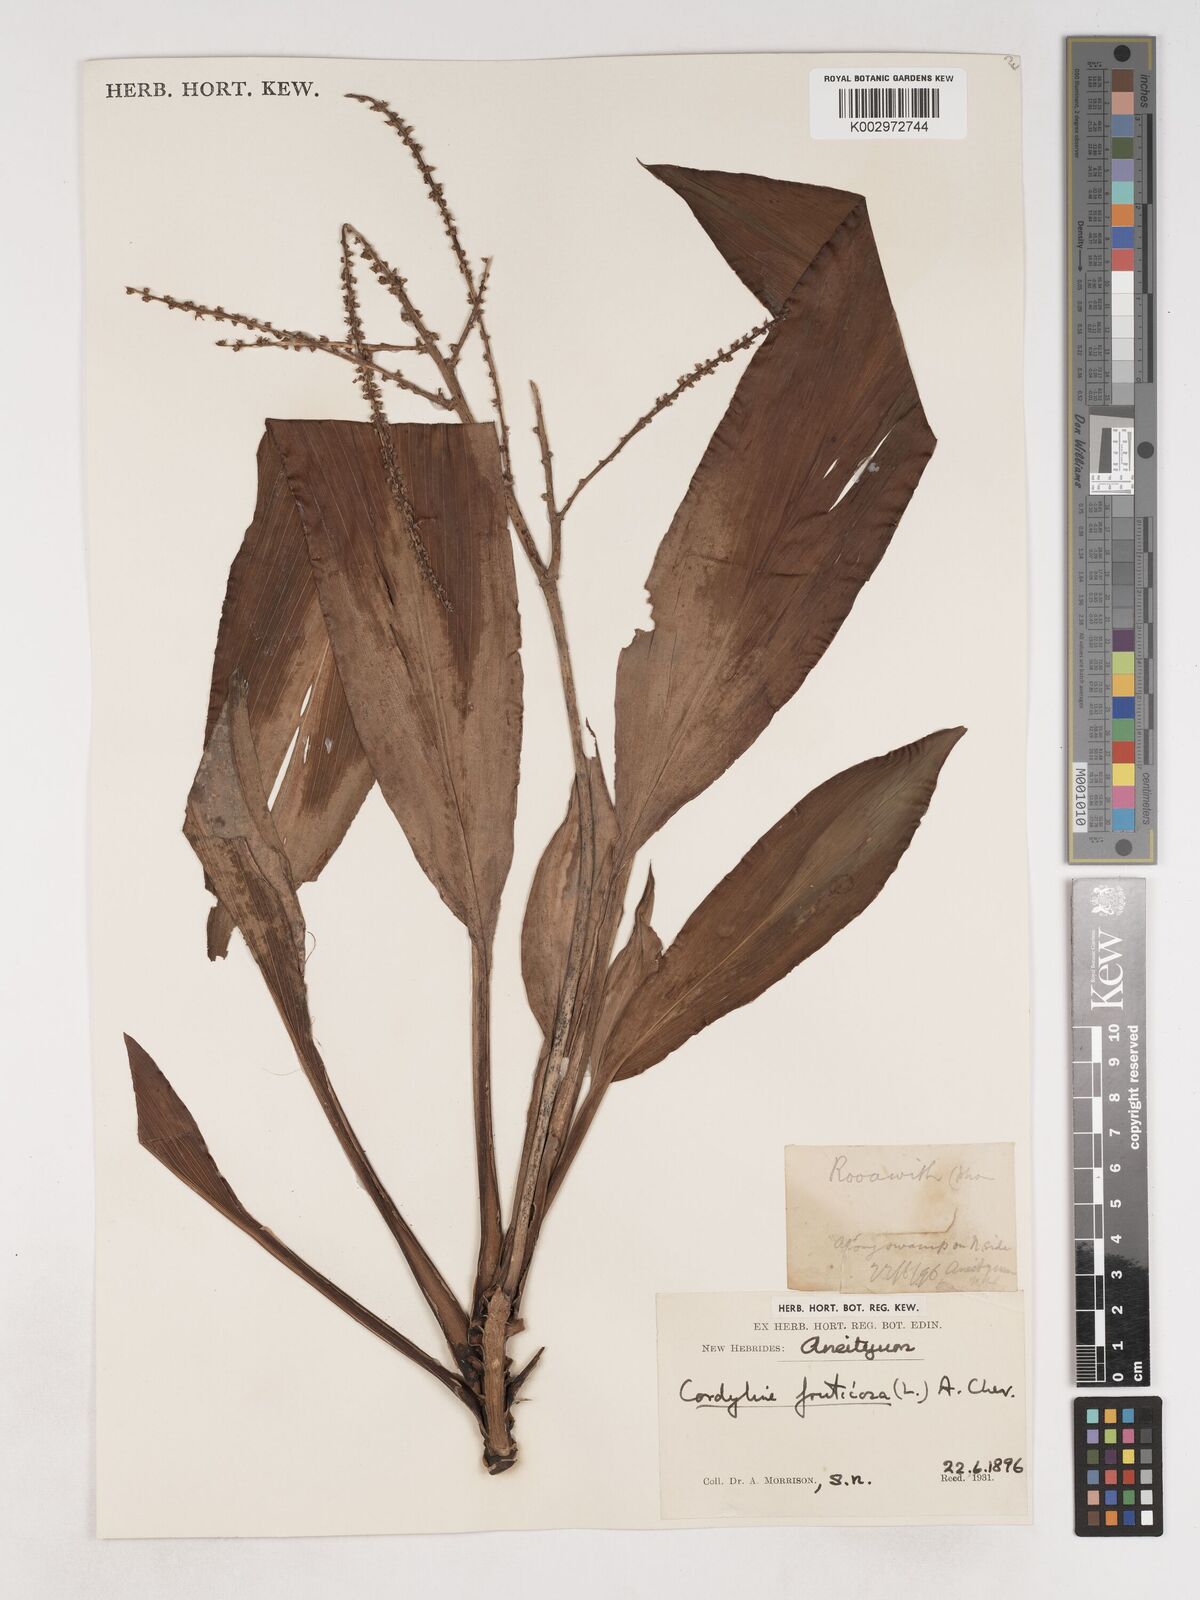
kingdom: Plantae
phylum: Tracheophyta
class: Liliopsida
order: Asparagales
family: Asparagaceae
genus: Cordyline
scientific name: Cordyline fruticosa
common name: Good-luck-plant
